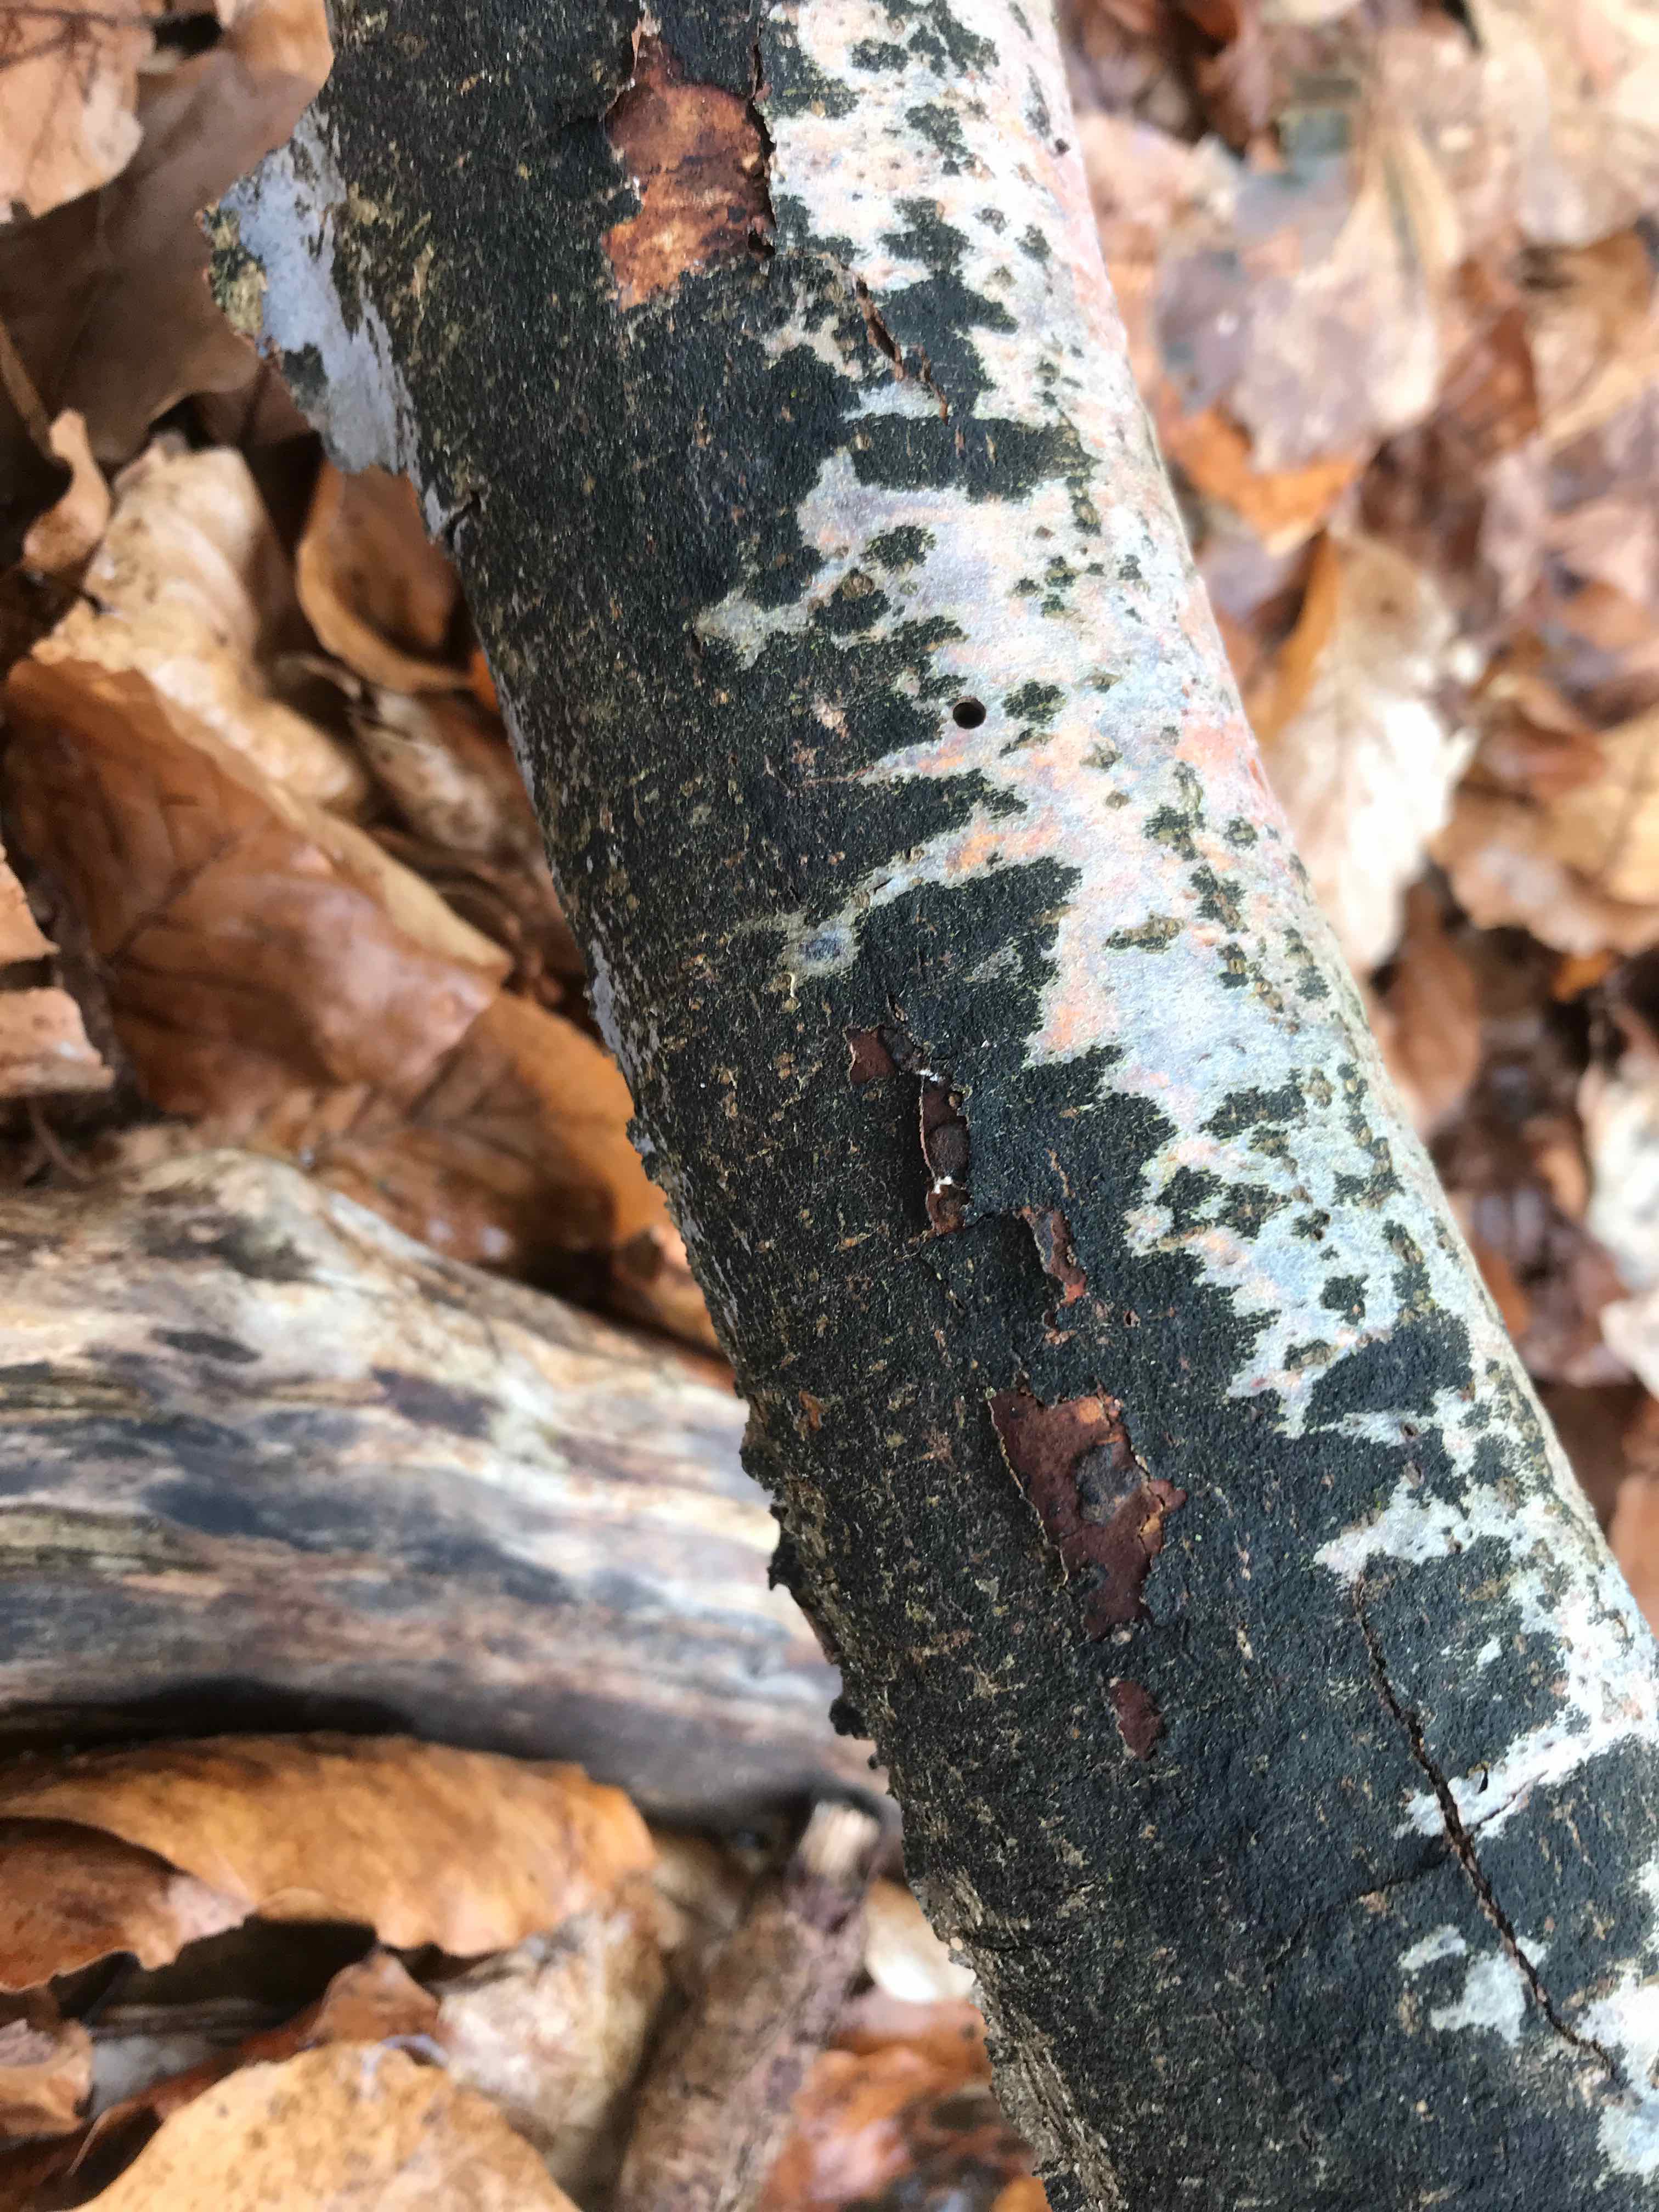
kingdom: Fungi
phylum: Ascomycota
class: Leotiomycetes
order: Rhytismatales
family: Ascodichaenaceae
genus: Ascodichaena
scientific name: Ascodichaena rugosa
